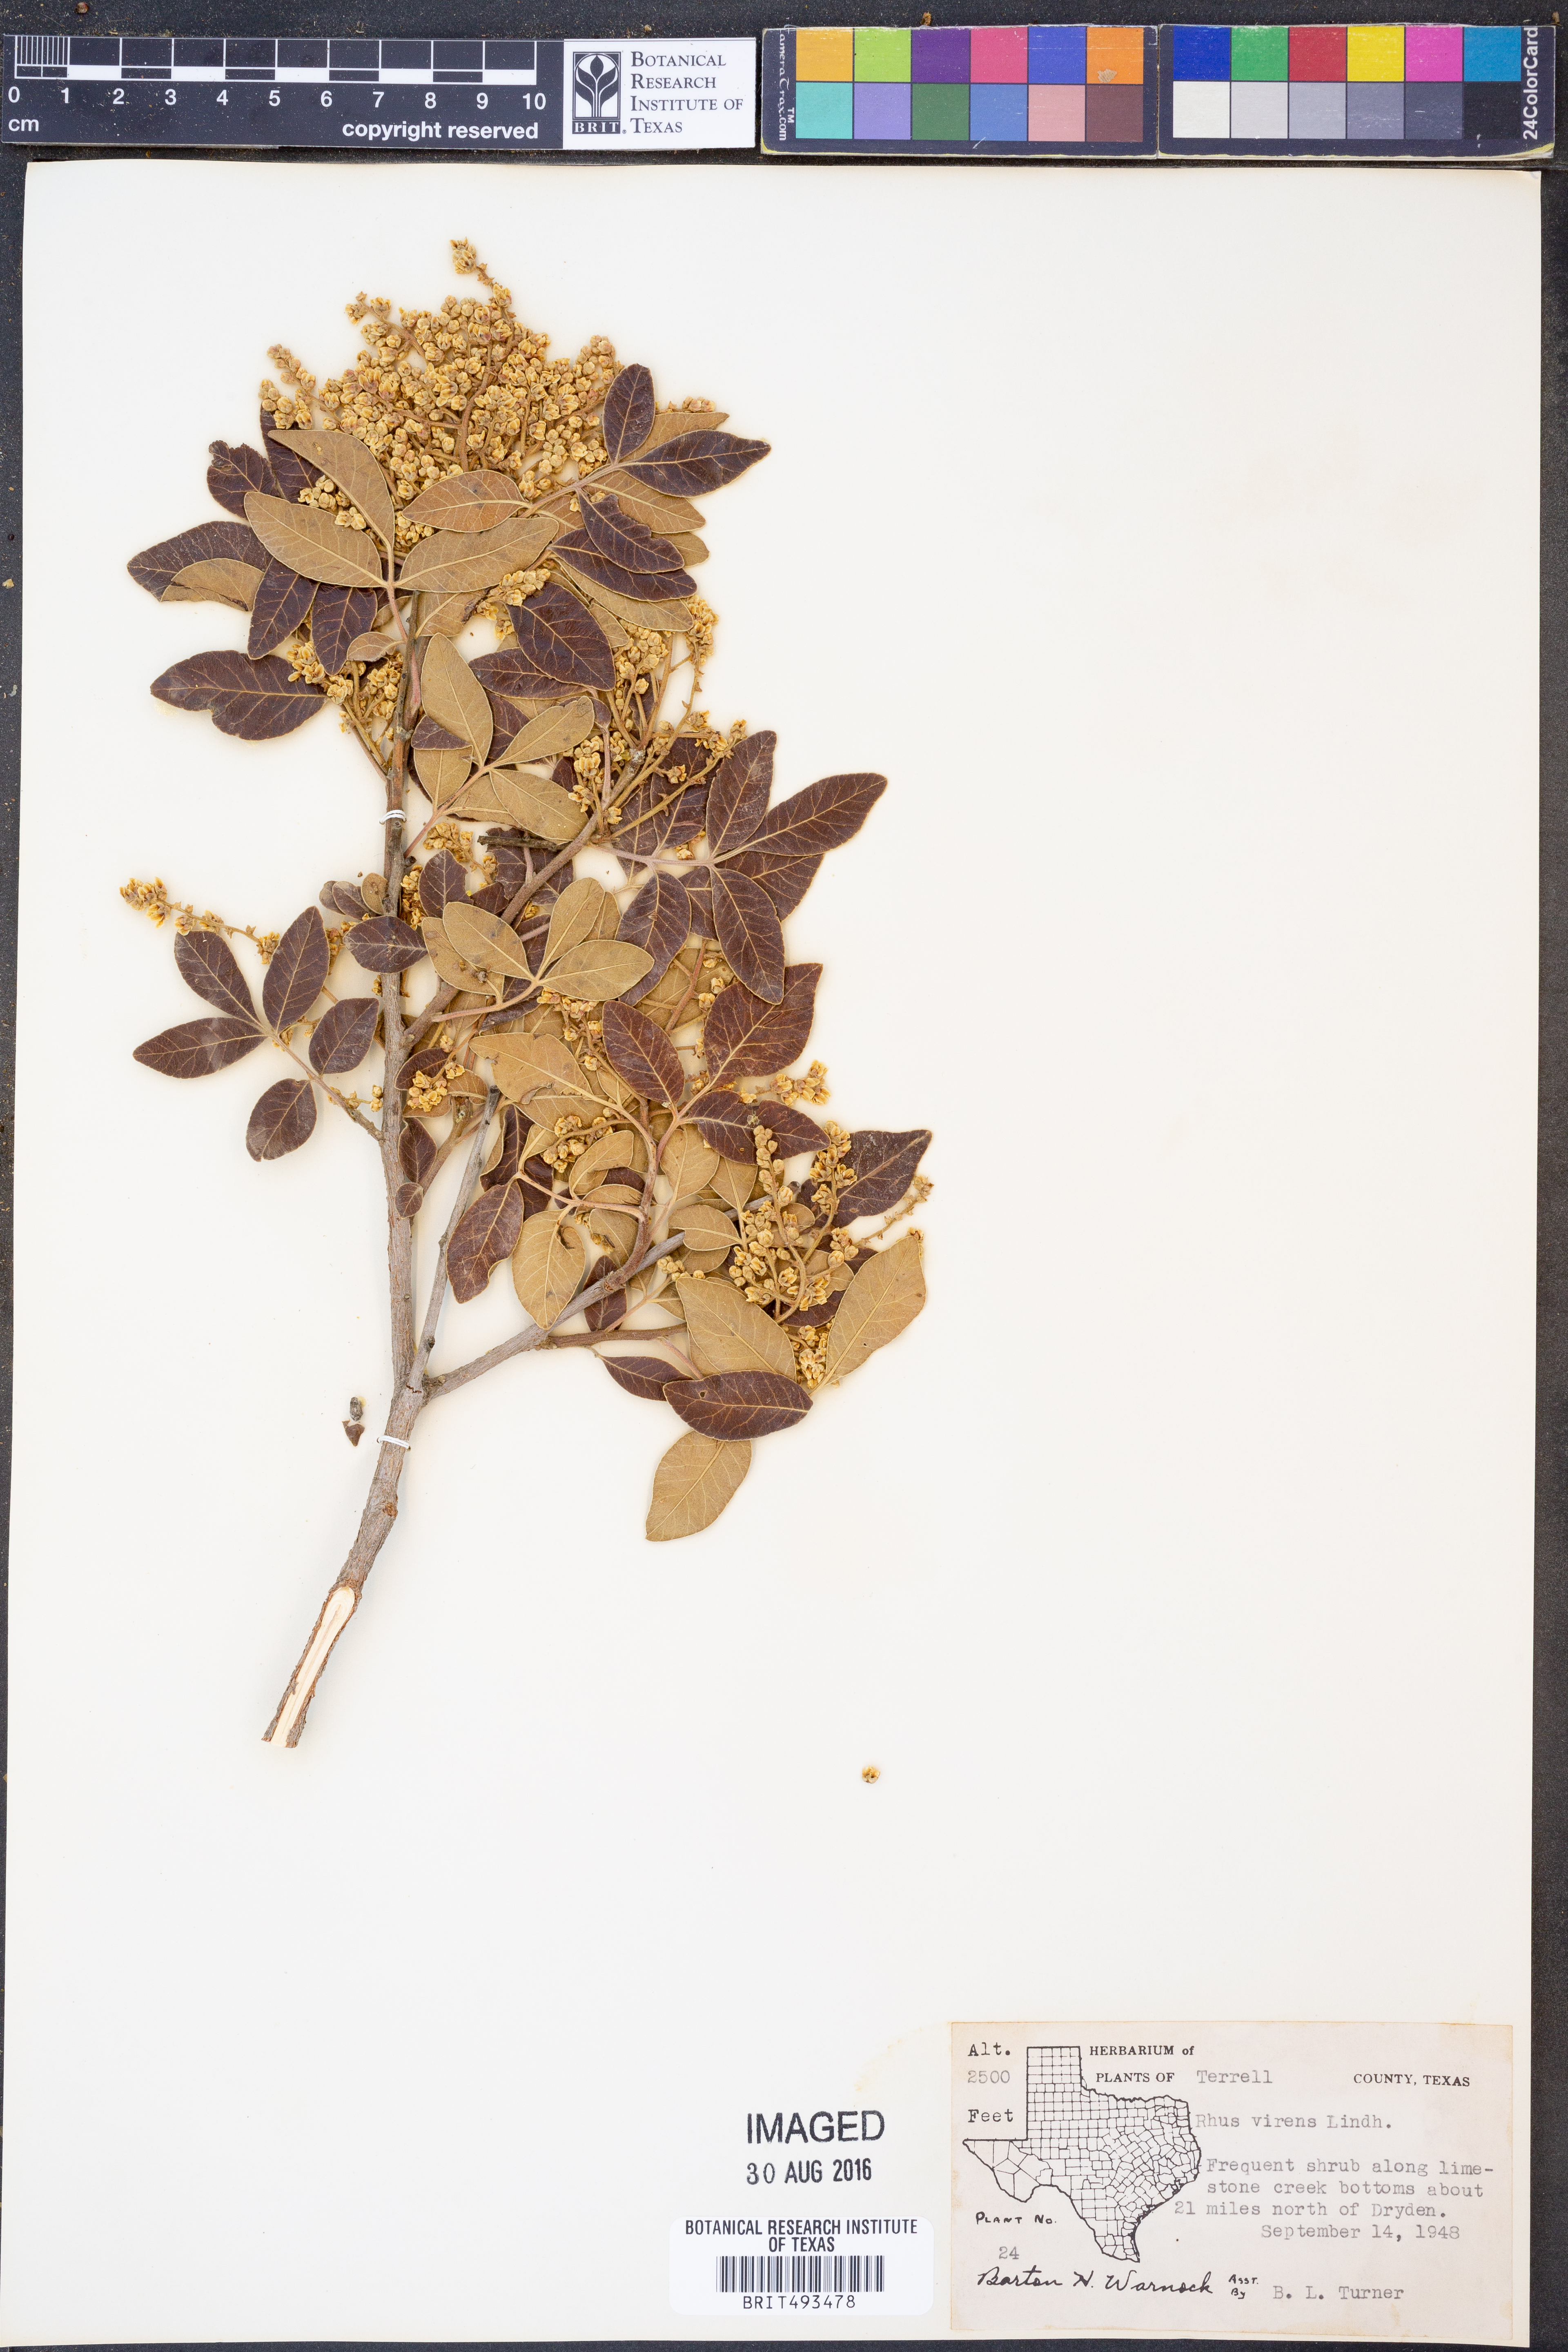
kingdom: Plantae
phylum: Tracheophyta
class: Magnoliopsida
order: Sapindales
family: Anacardiaceae
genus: Rhus
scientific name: Rhus virens
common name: Evergreen sumac
